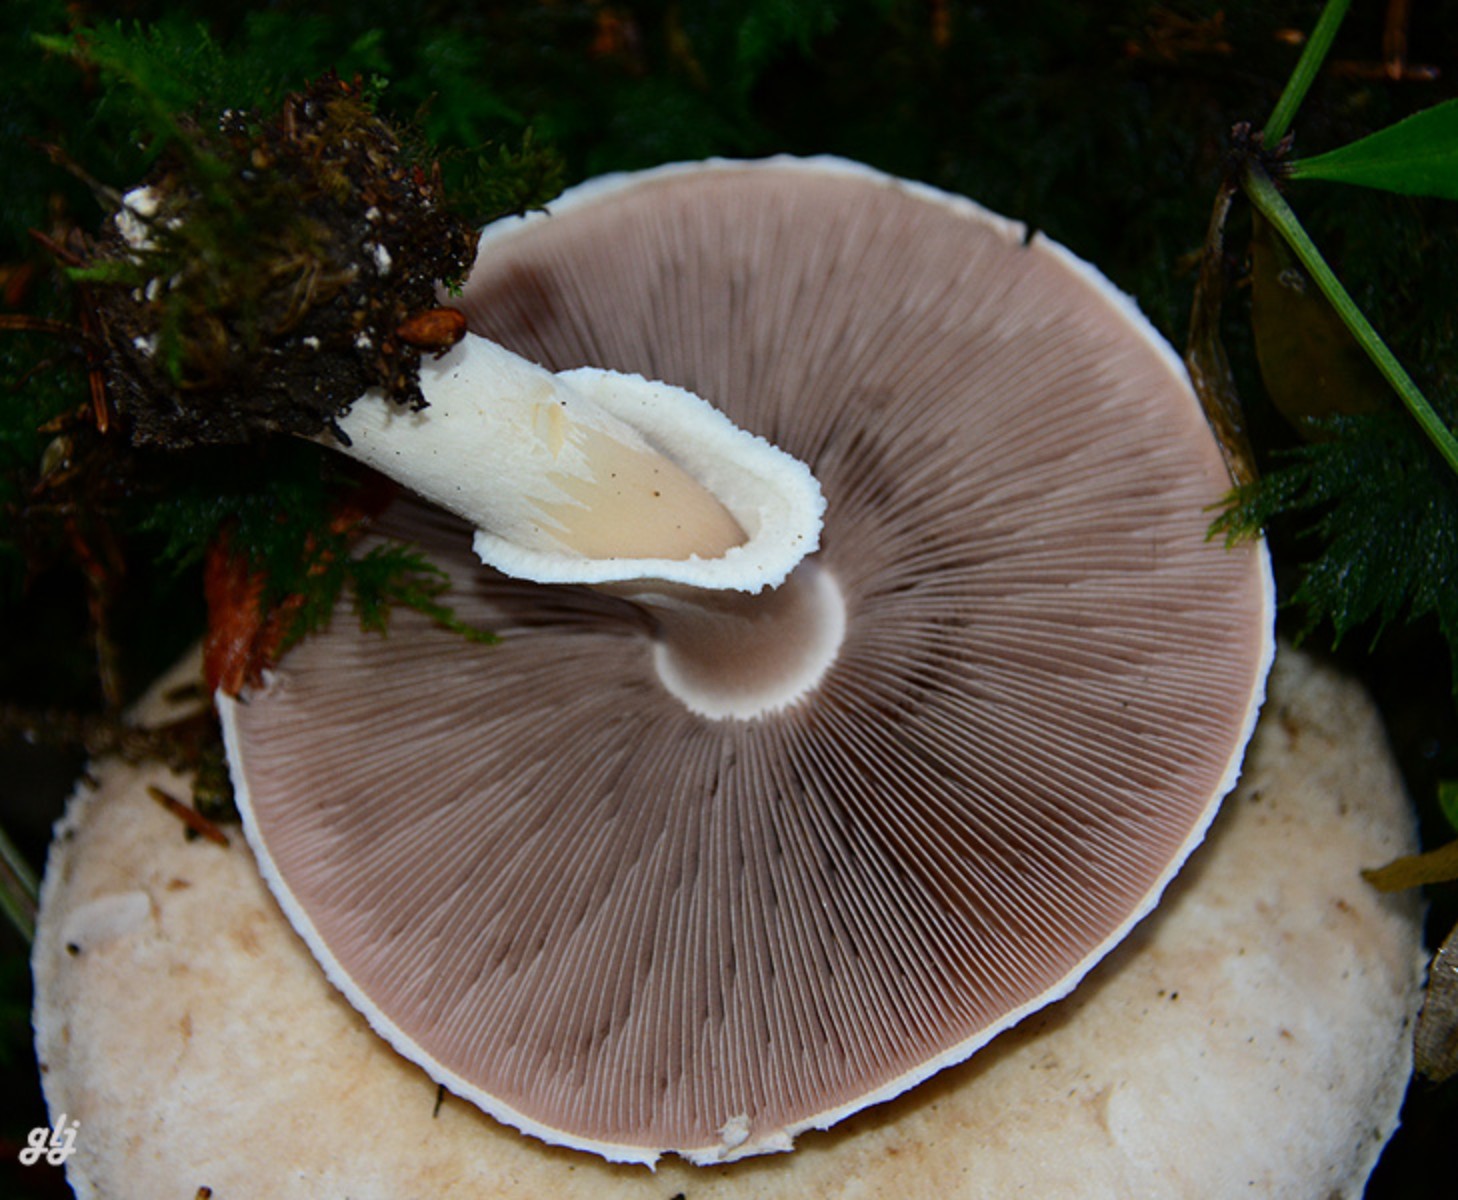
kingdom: Fungi
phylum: Basidiomycota
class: Agaricomycetes
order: Agaricales
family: Agaricaceae
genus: Agaricus
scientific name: Agaricus
